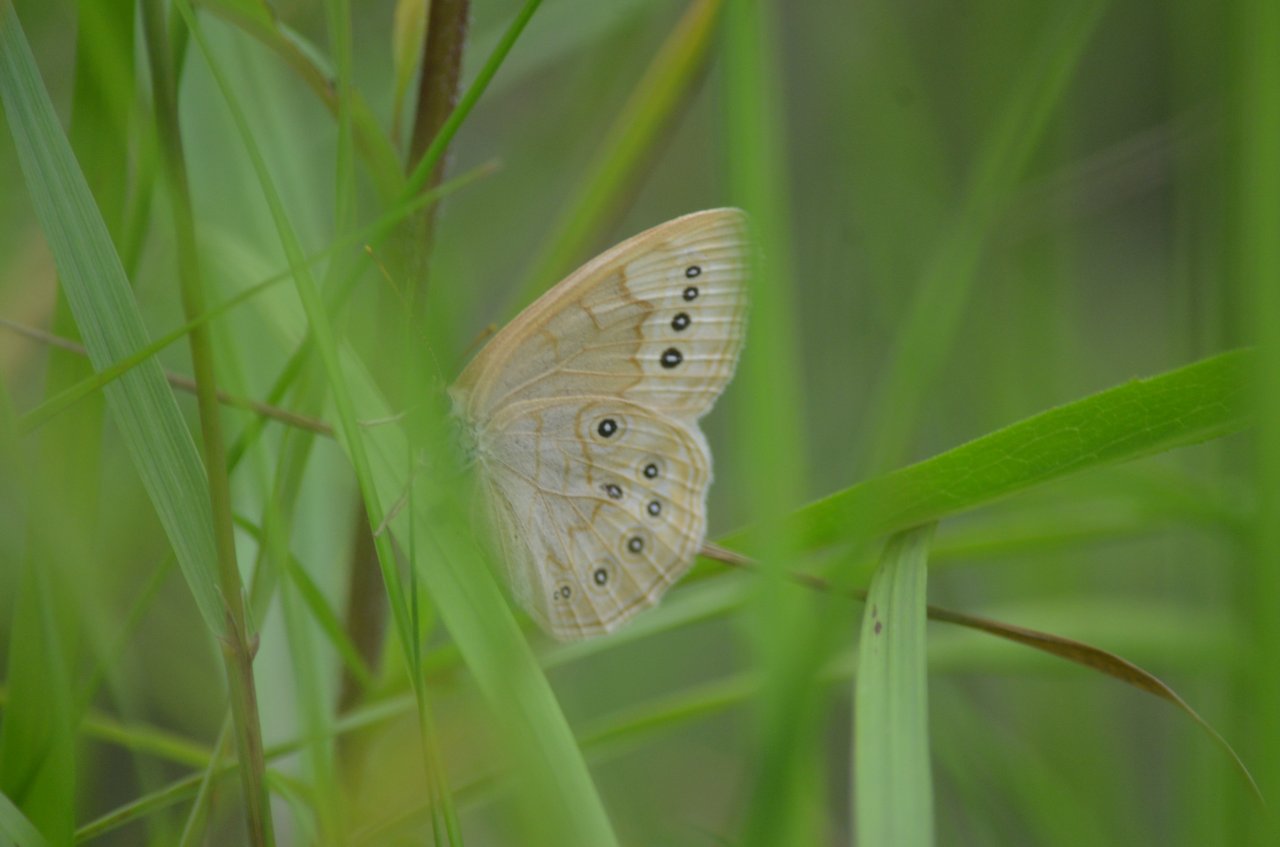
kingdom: Animalia
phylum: Arthropoda
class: Insecta
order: Lepidoptera
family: Nymphalidae
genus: Lethe
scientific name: Lethe eurydice
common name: Eyed Brown
